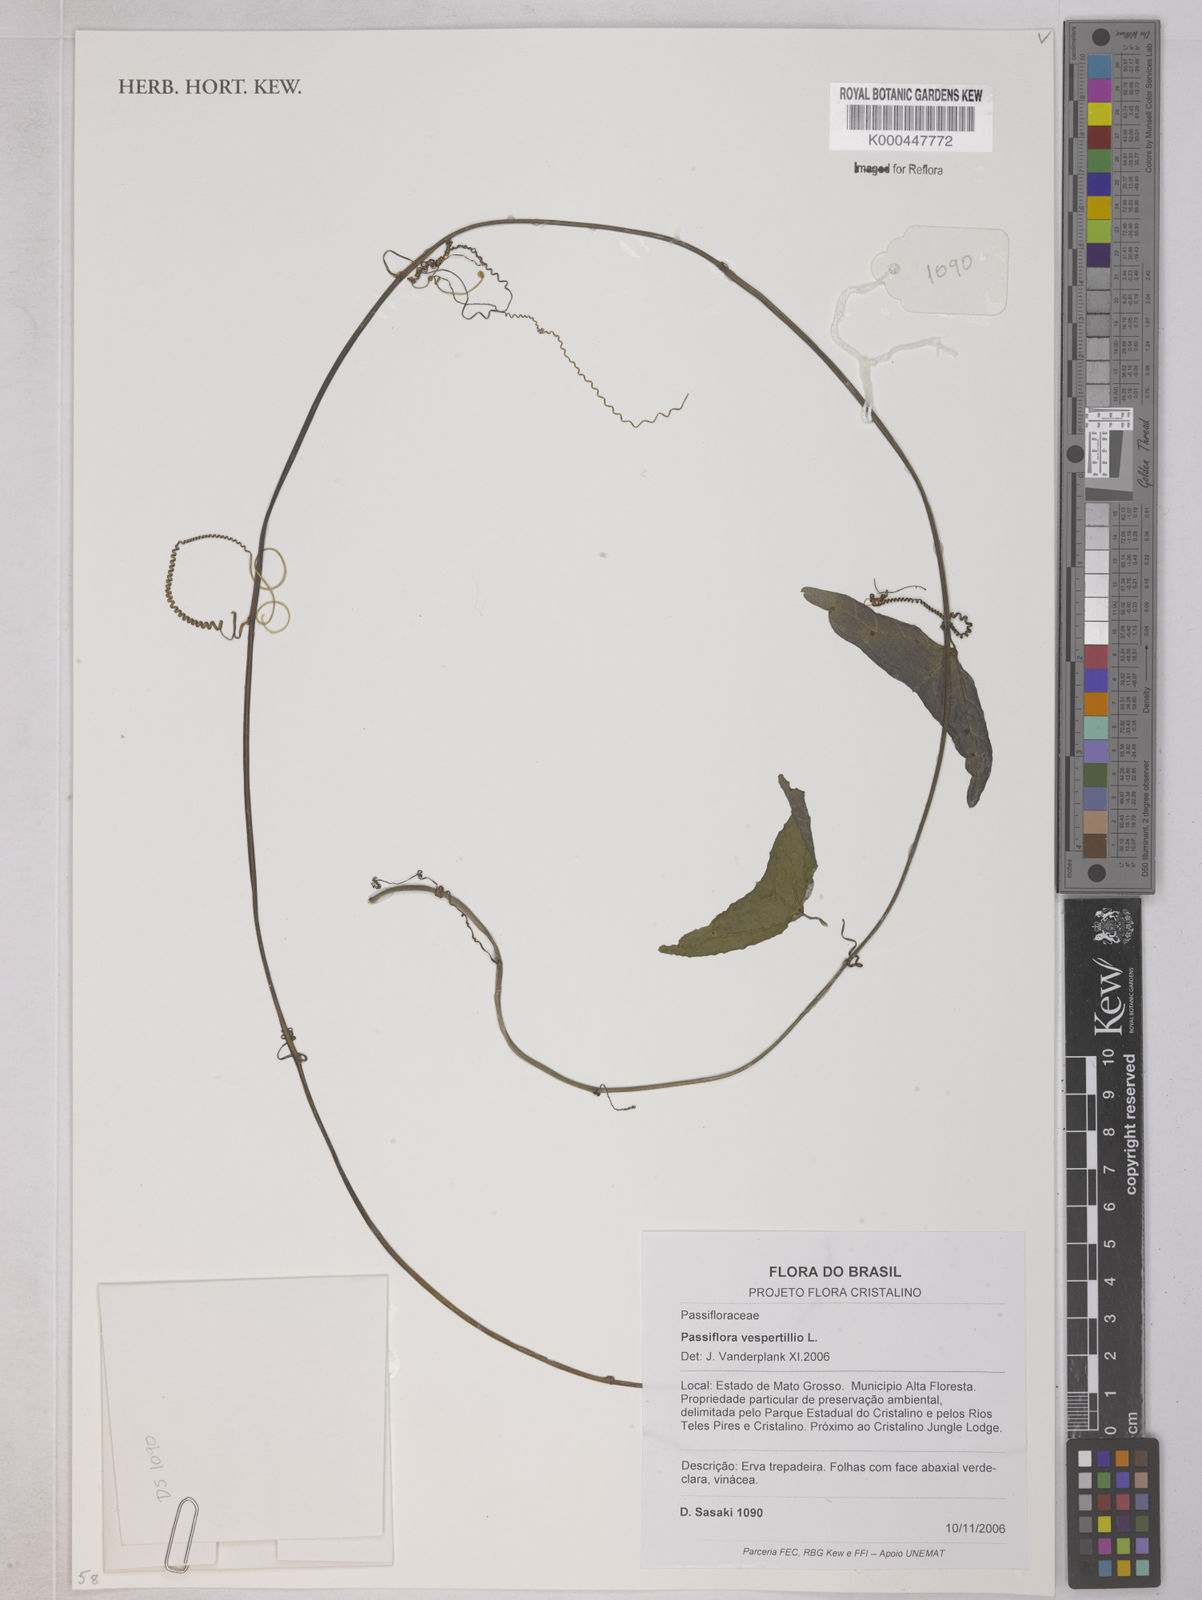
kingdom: Plantae
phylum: Tracheophyta
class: Magnoliopsida
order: Malpighiales
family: Passifloraceae
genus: Passiflora
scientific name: Passiflora vespertilio
